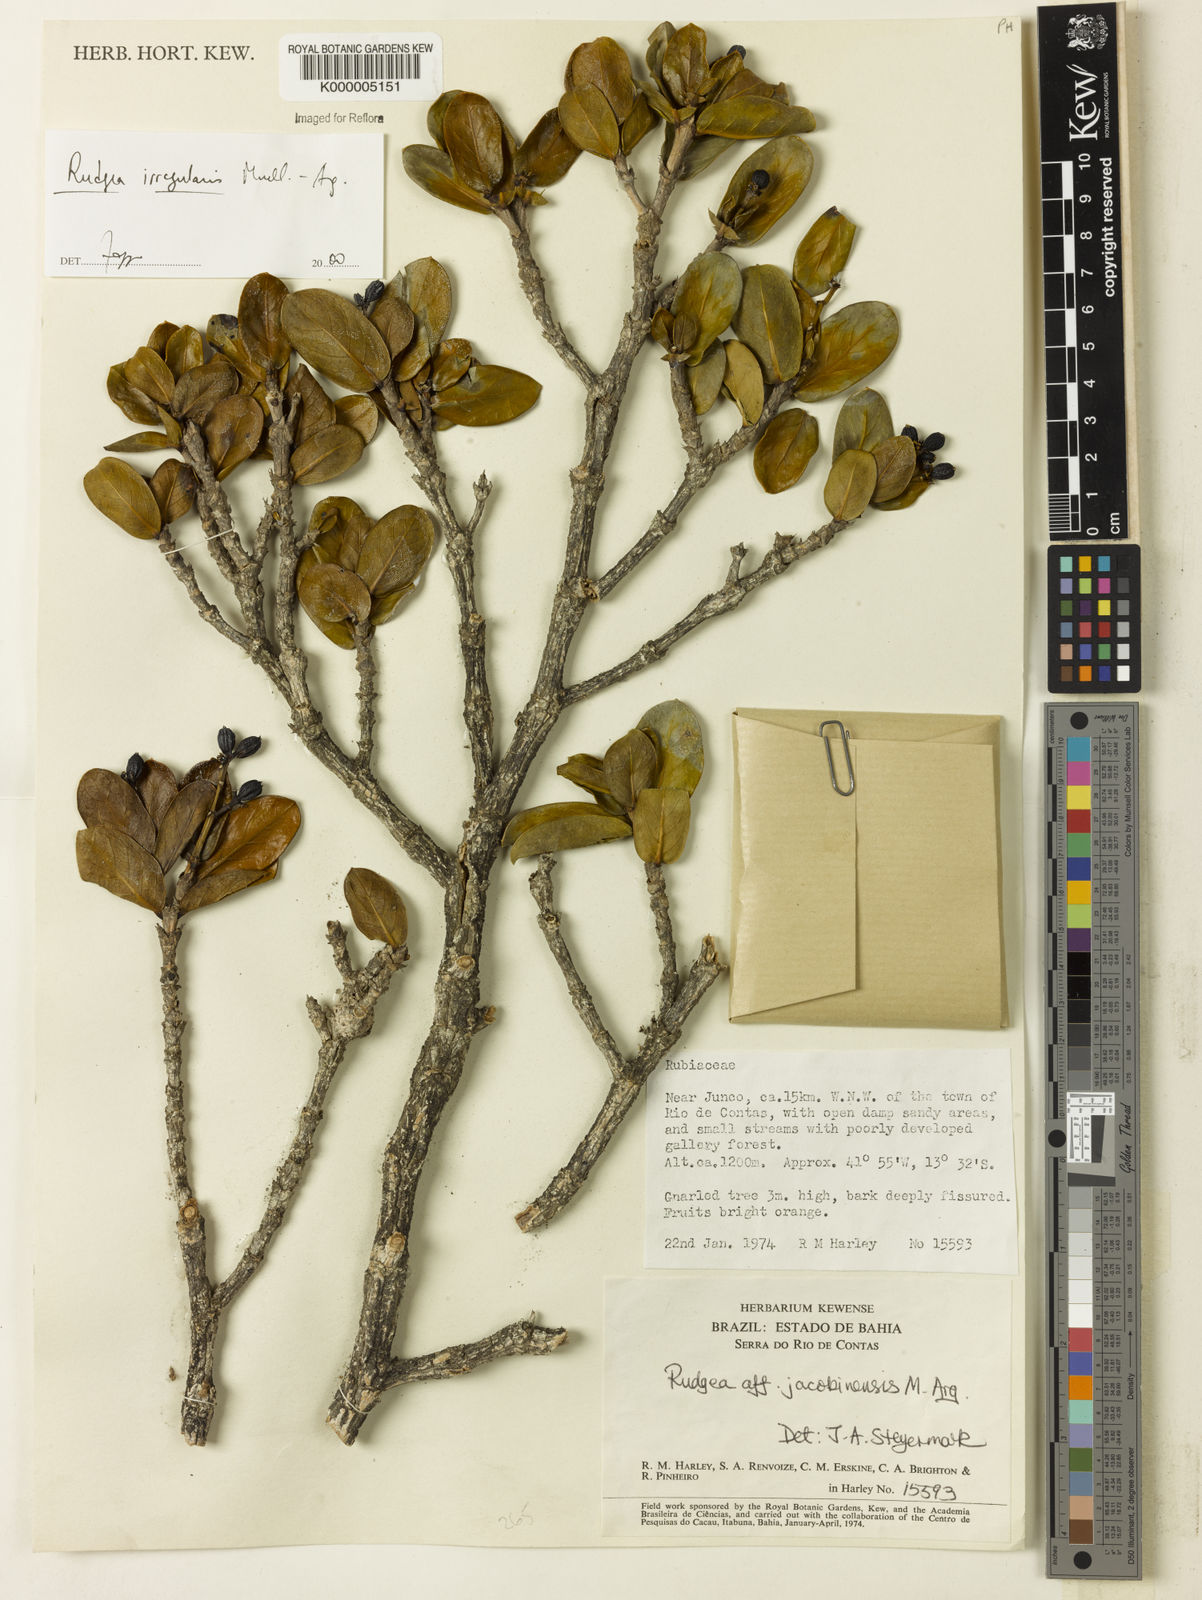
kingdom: Plantae
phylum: Tracheophyta
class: Magnoliopsida
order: Gentianales
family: Rubiaceae
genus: Rudgea
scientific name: Rudgea irregularis
